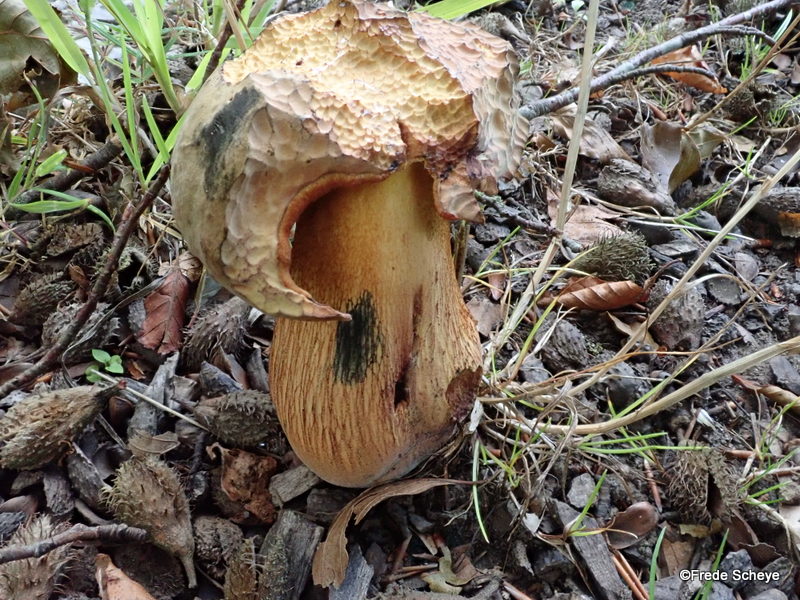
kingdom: Fungi
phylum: Basidiomycota
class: Agaricomycetes
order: Boletales
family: Boletaceae
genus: Suillellus
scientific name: Suillellus luridus
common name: netstokket indigorørhat
